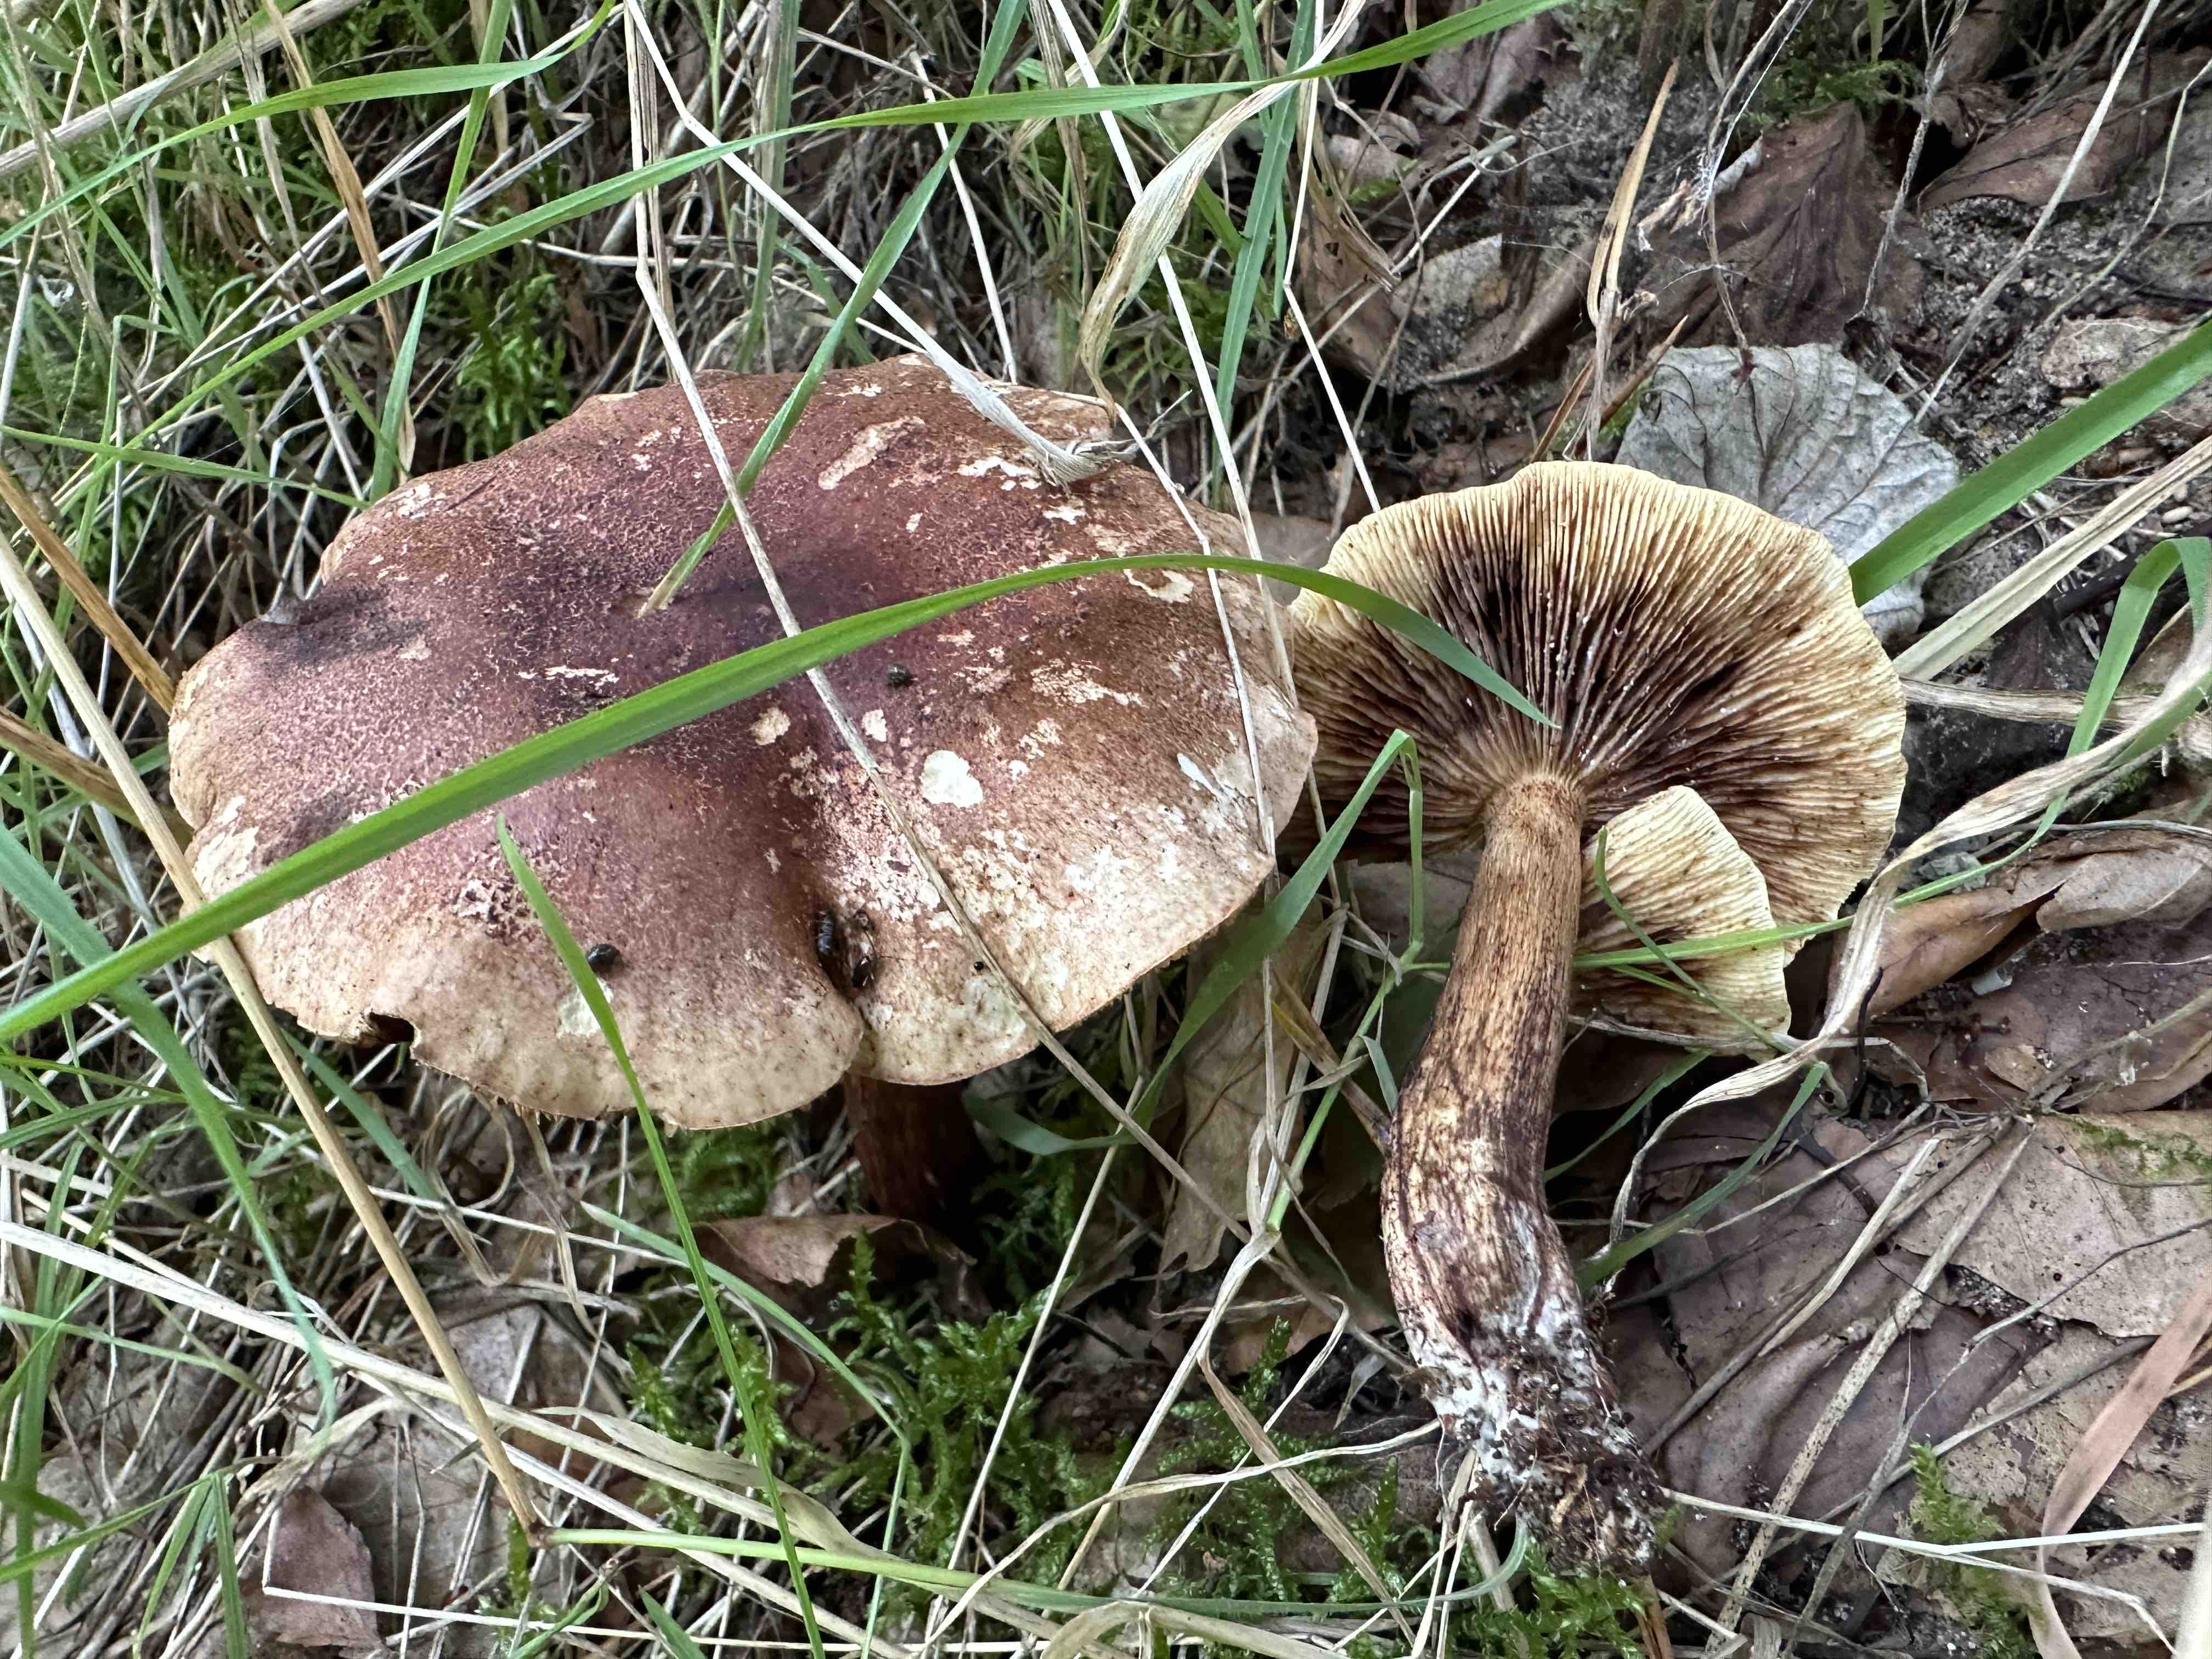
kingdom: Fungi
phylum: Basidiomycota
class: Agaricomycetes
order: Agaricales
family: Tricholomataceae
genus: Tricholoma
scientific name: Tricholoma fulvum
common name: birke-ridderhat
